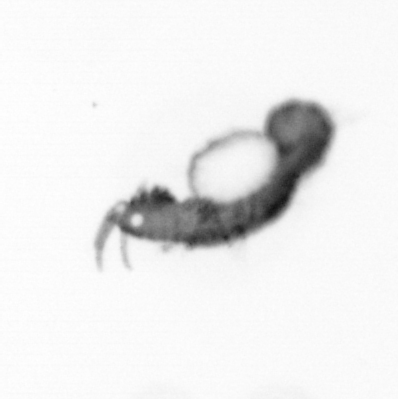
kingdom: Animalia
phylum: Annelida
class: Polychaeta
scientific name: Polychaeta
